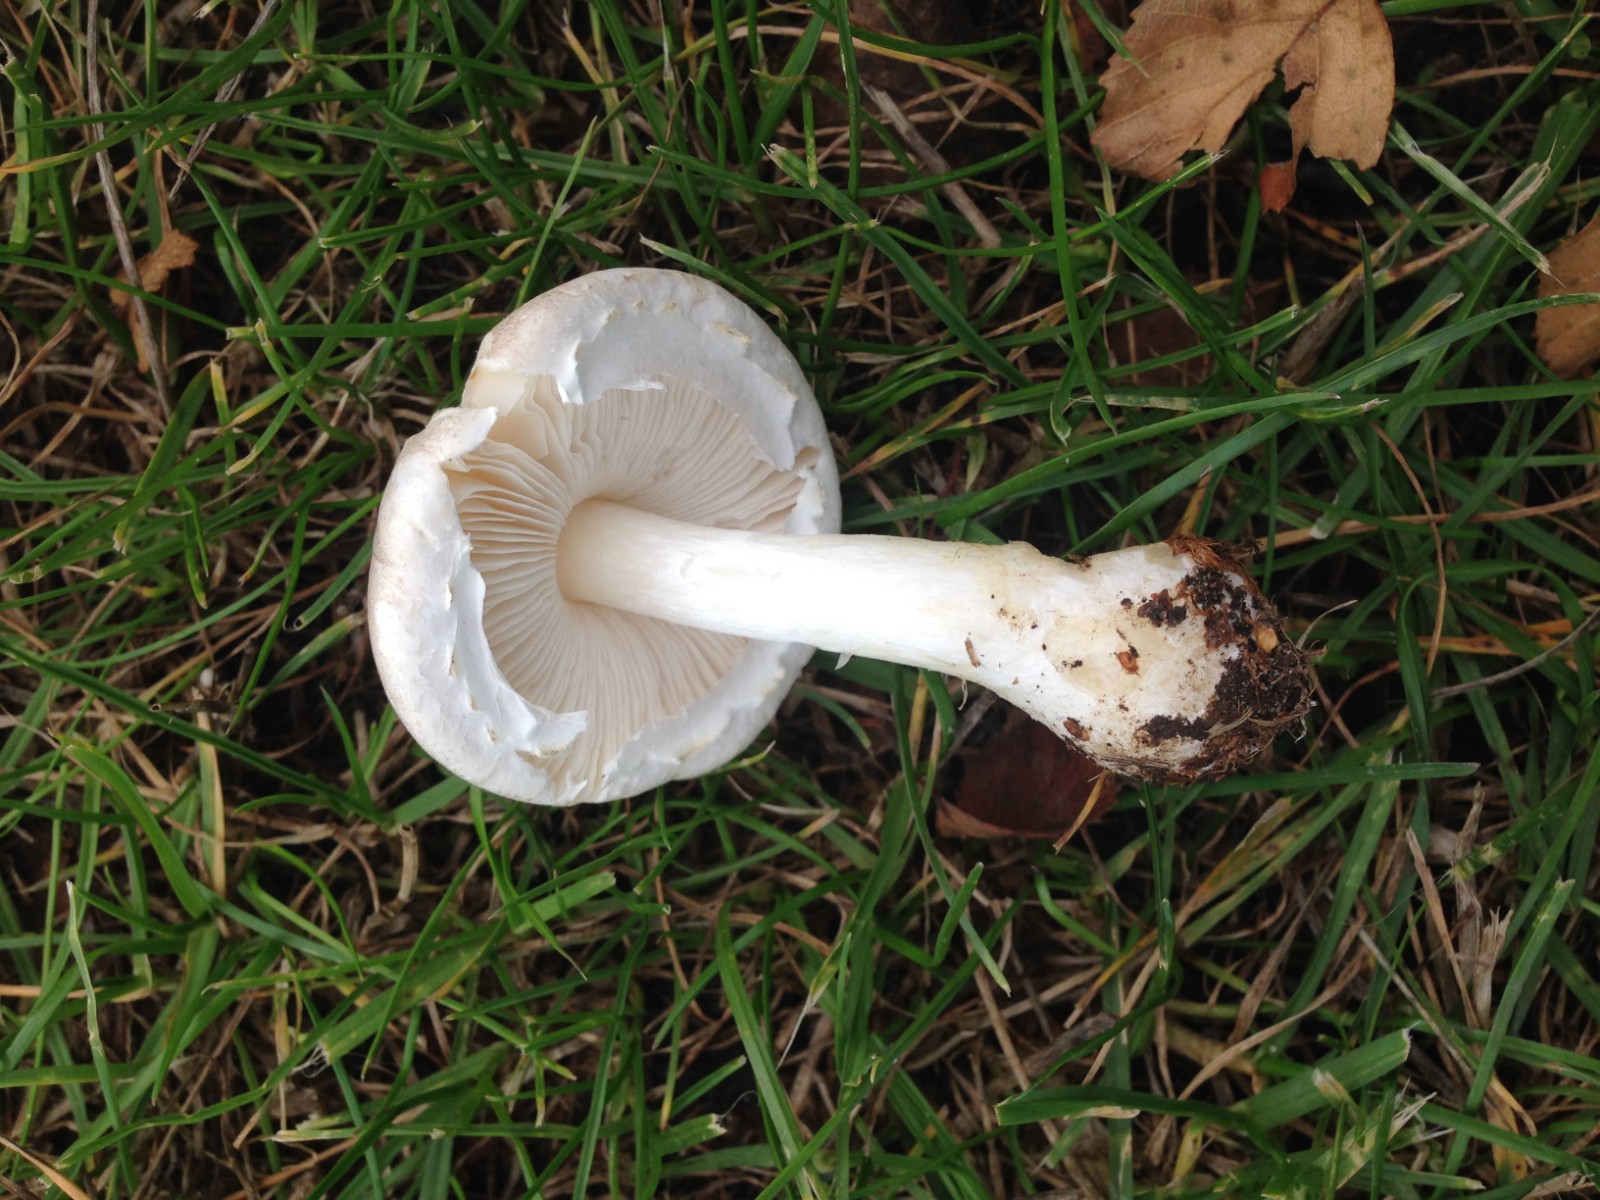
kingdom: Fungi
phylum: Basidiomycota
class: Agaricomycetes
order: Agaricales
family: Agaricaceae
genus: Leucoagaricus
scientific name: Leucoagaricus leucothites
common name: rosabladet silkehat
